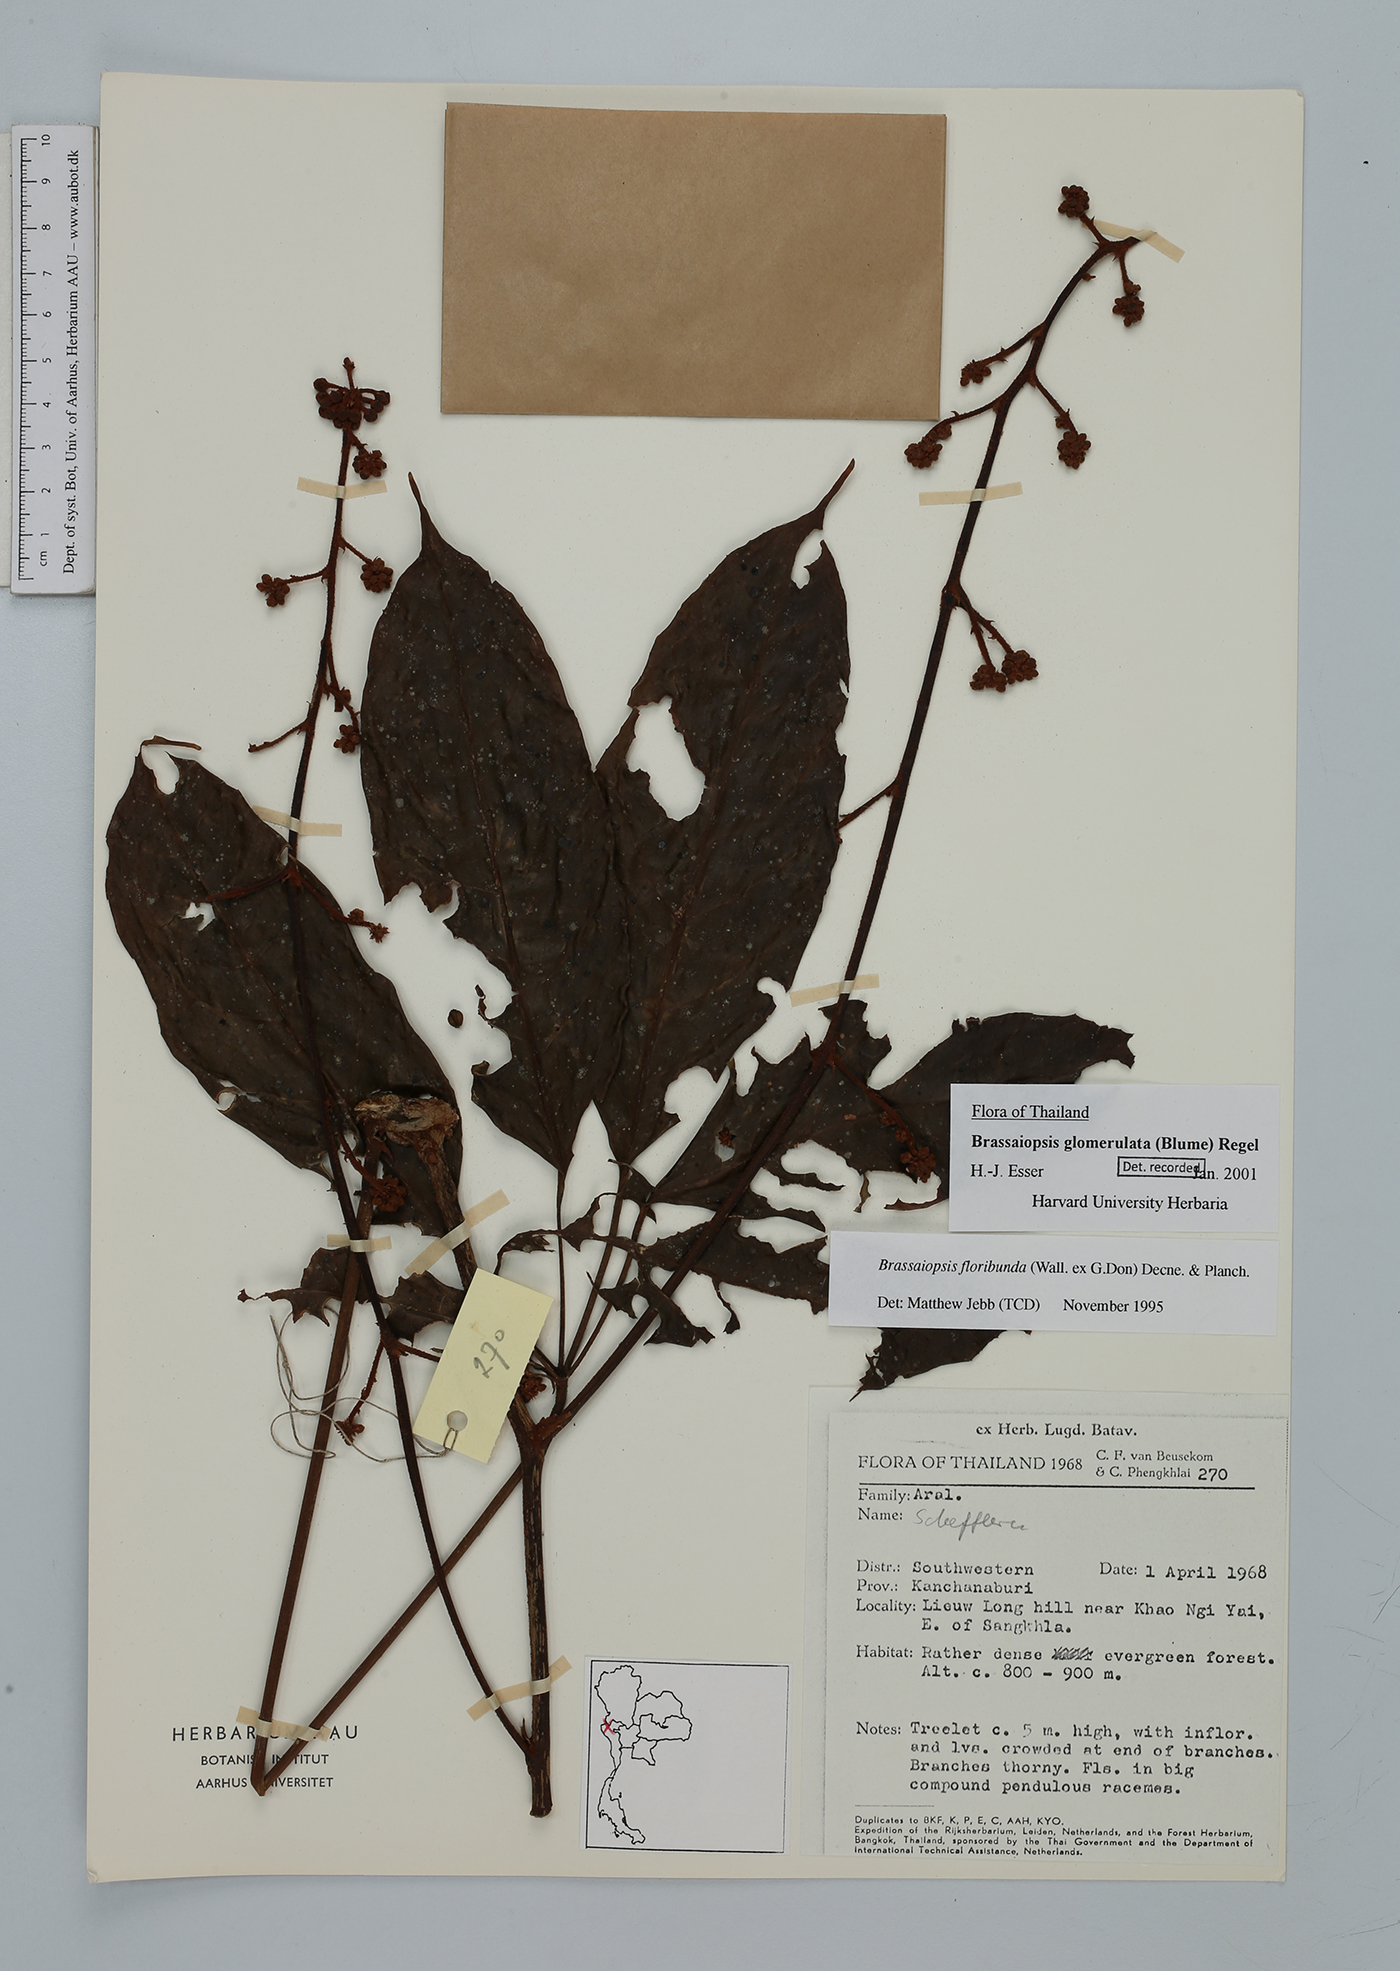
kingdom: Plantae
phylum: Tracheophyta
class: Magnoliopsida
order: Apiales
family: Araliaceae
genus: Brassaiopsis
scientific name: Brassaiopsis glomerulata
